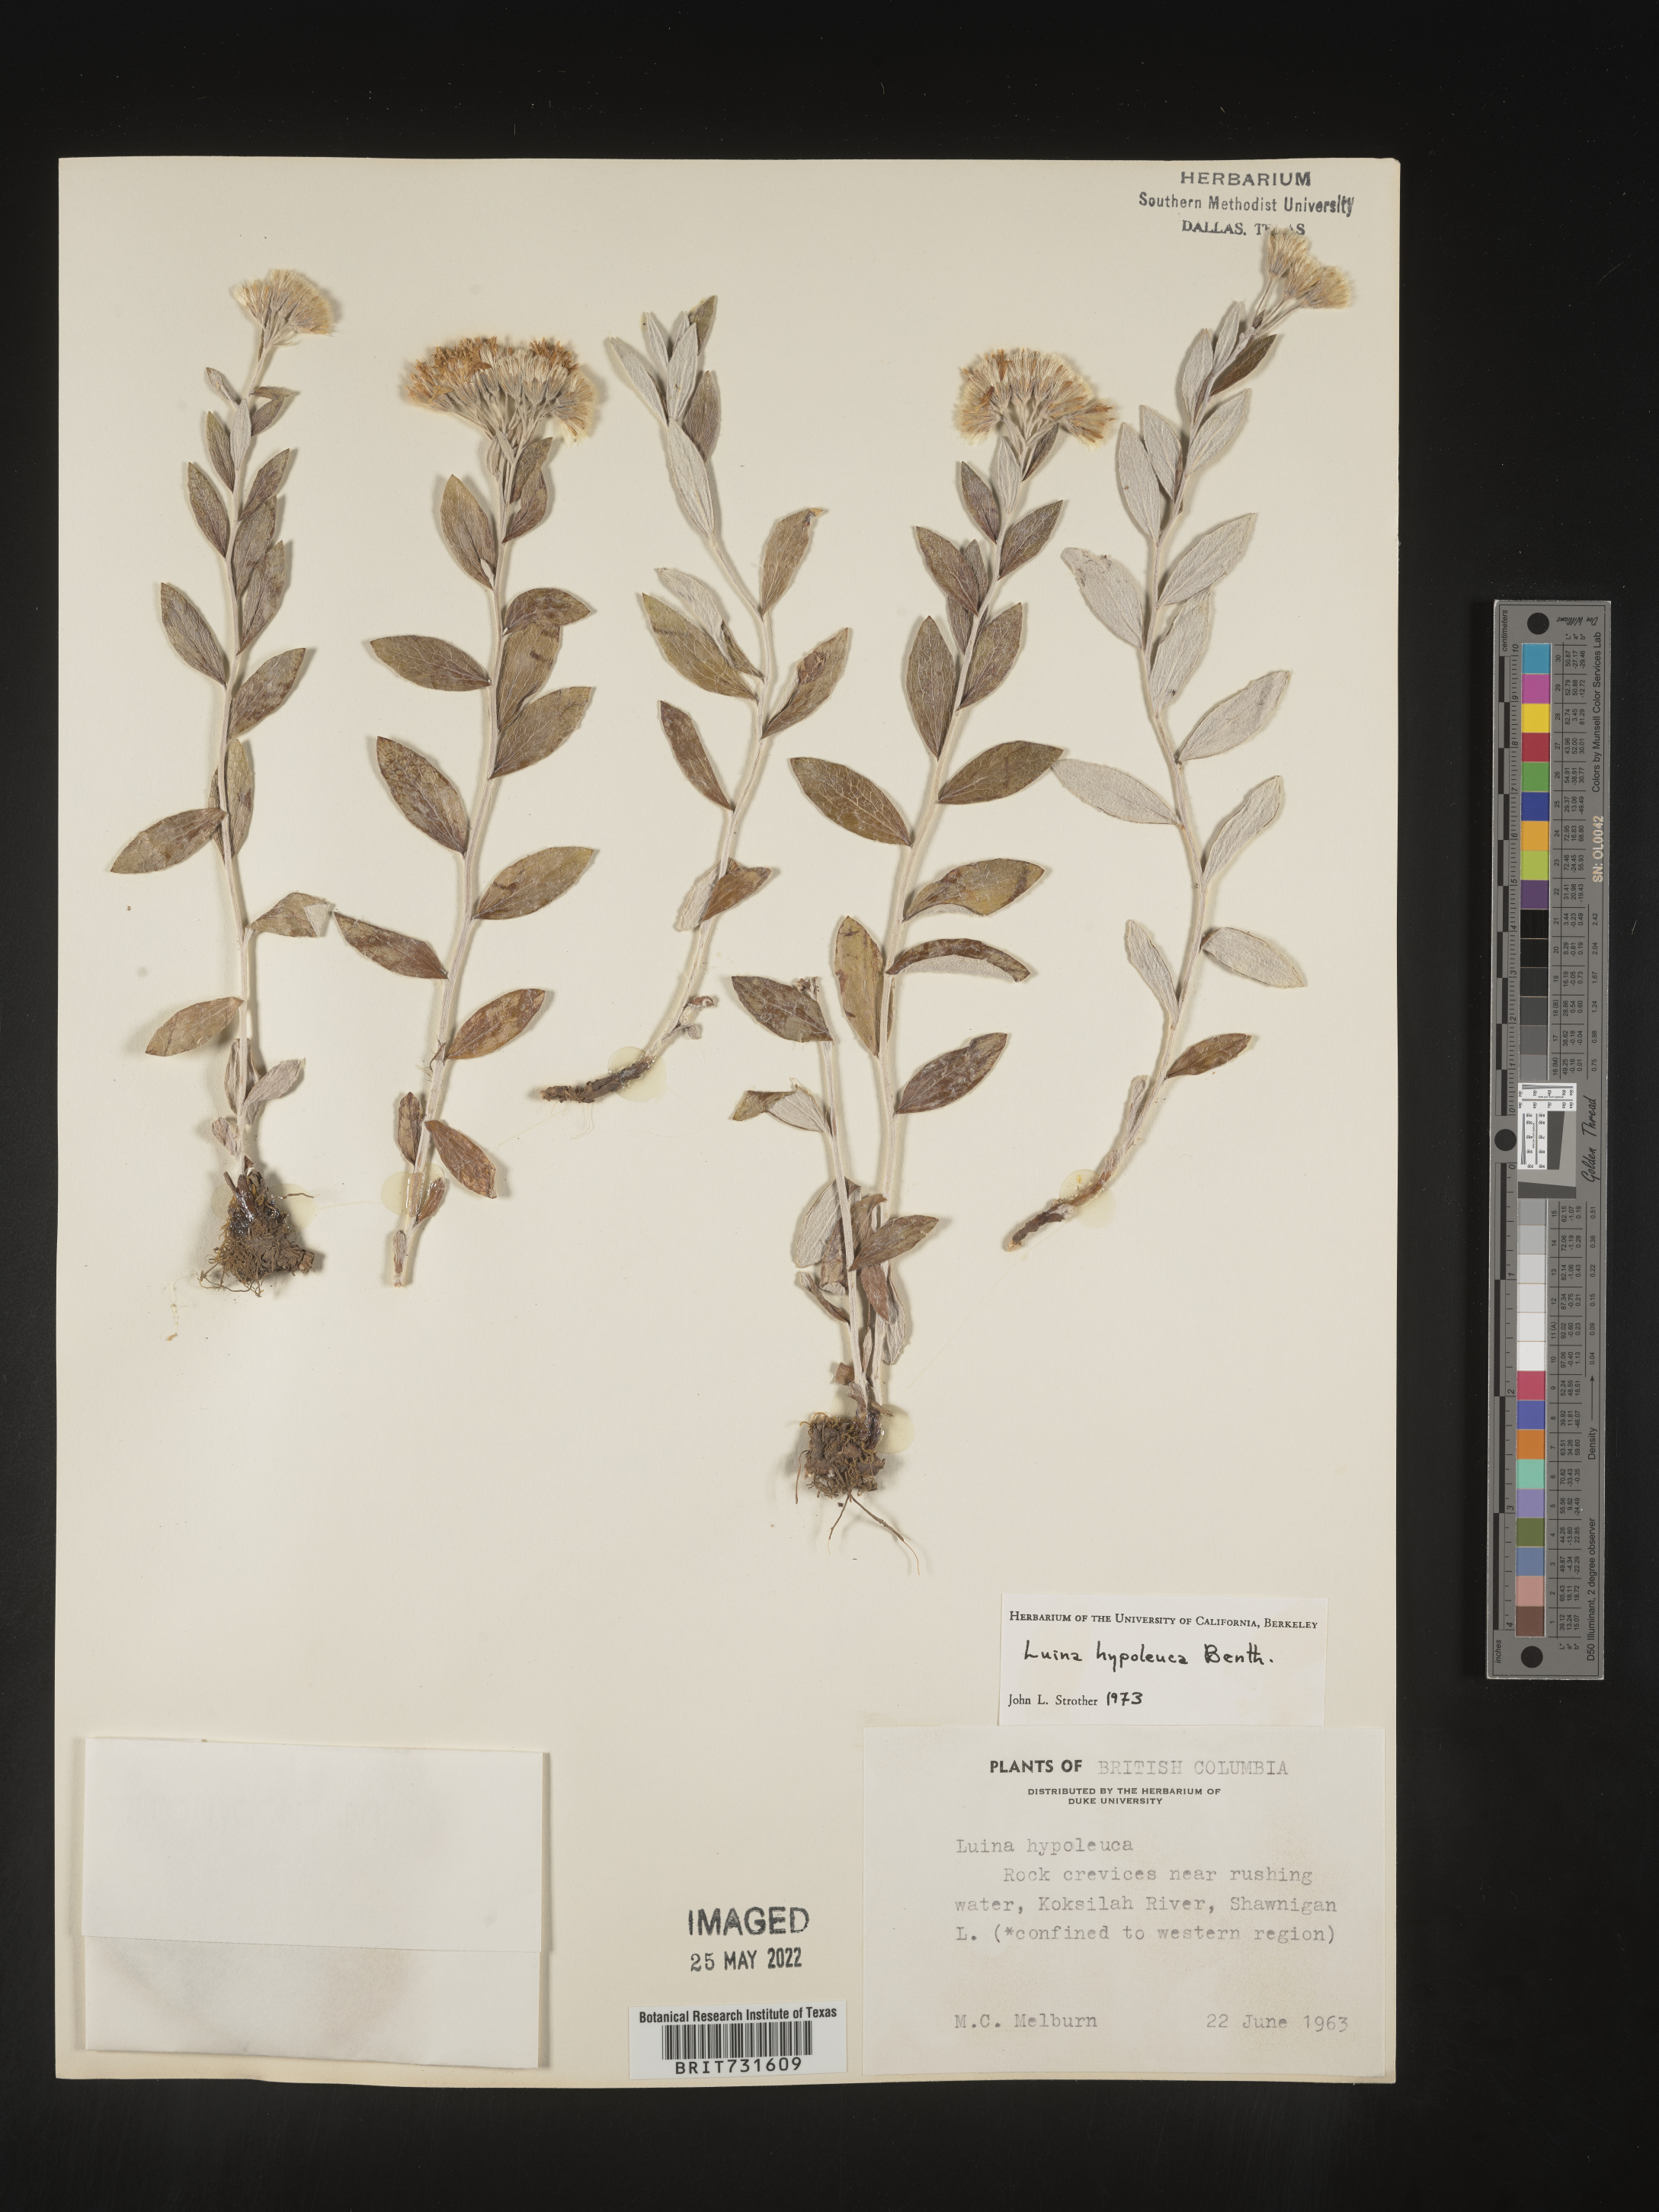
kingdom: Plantae
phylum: Tracheophyta
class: Magnoliopsida
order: Asterales
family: Asteraceae
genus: Luina
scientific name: Luina hypoleuca
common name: Little-leaved luina
